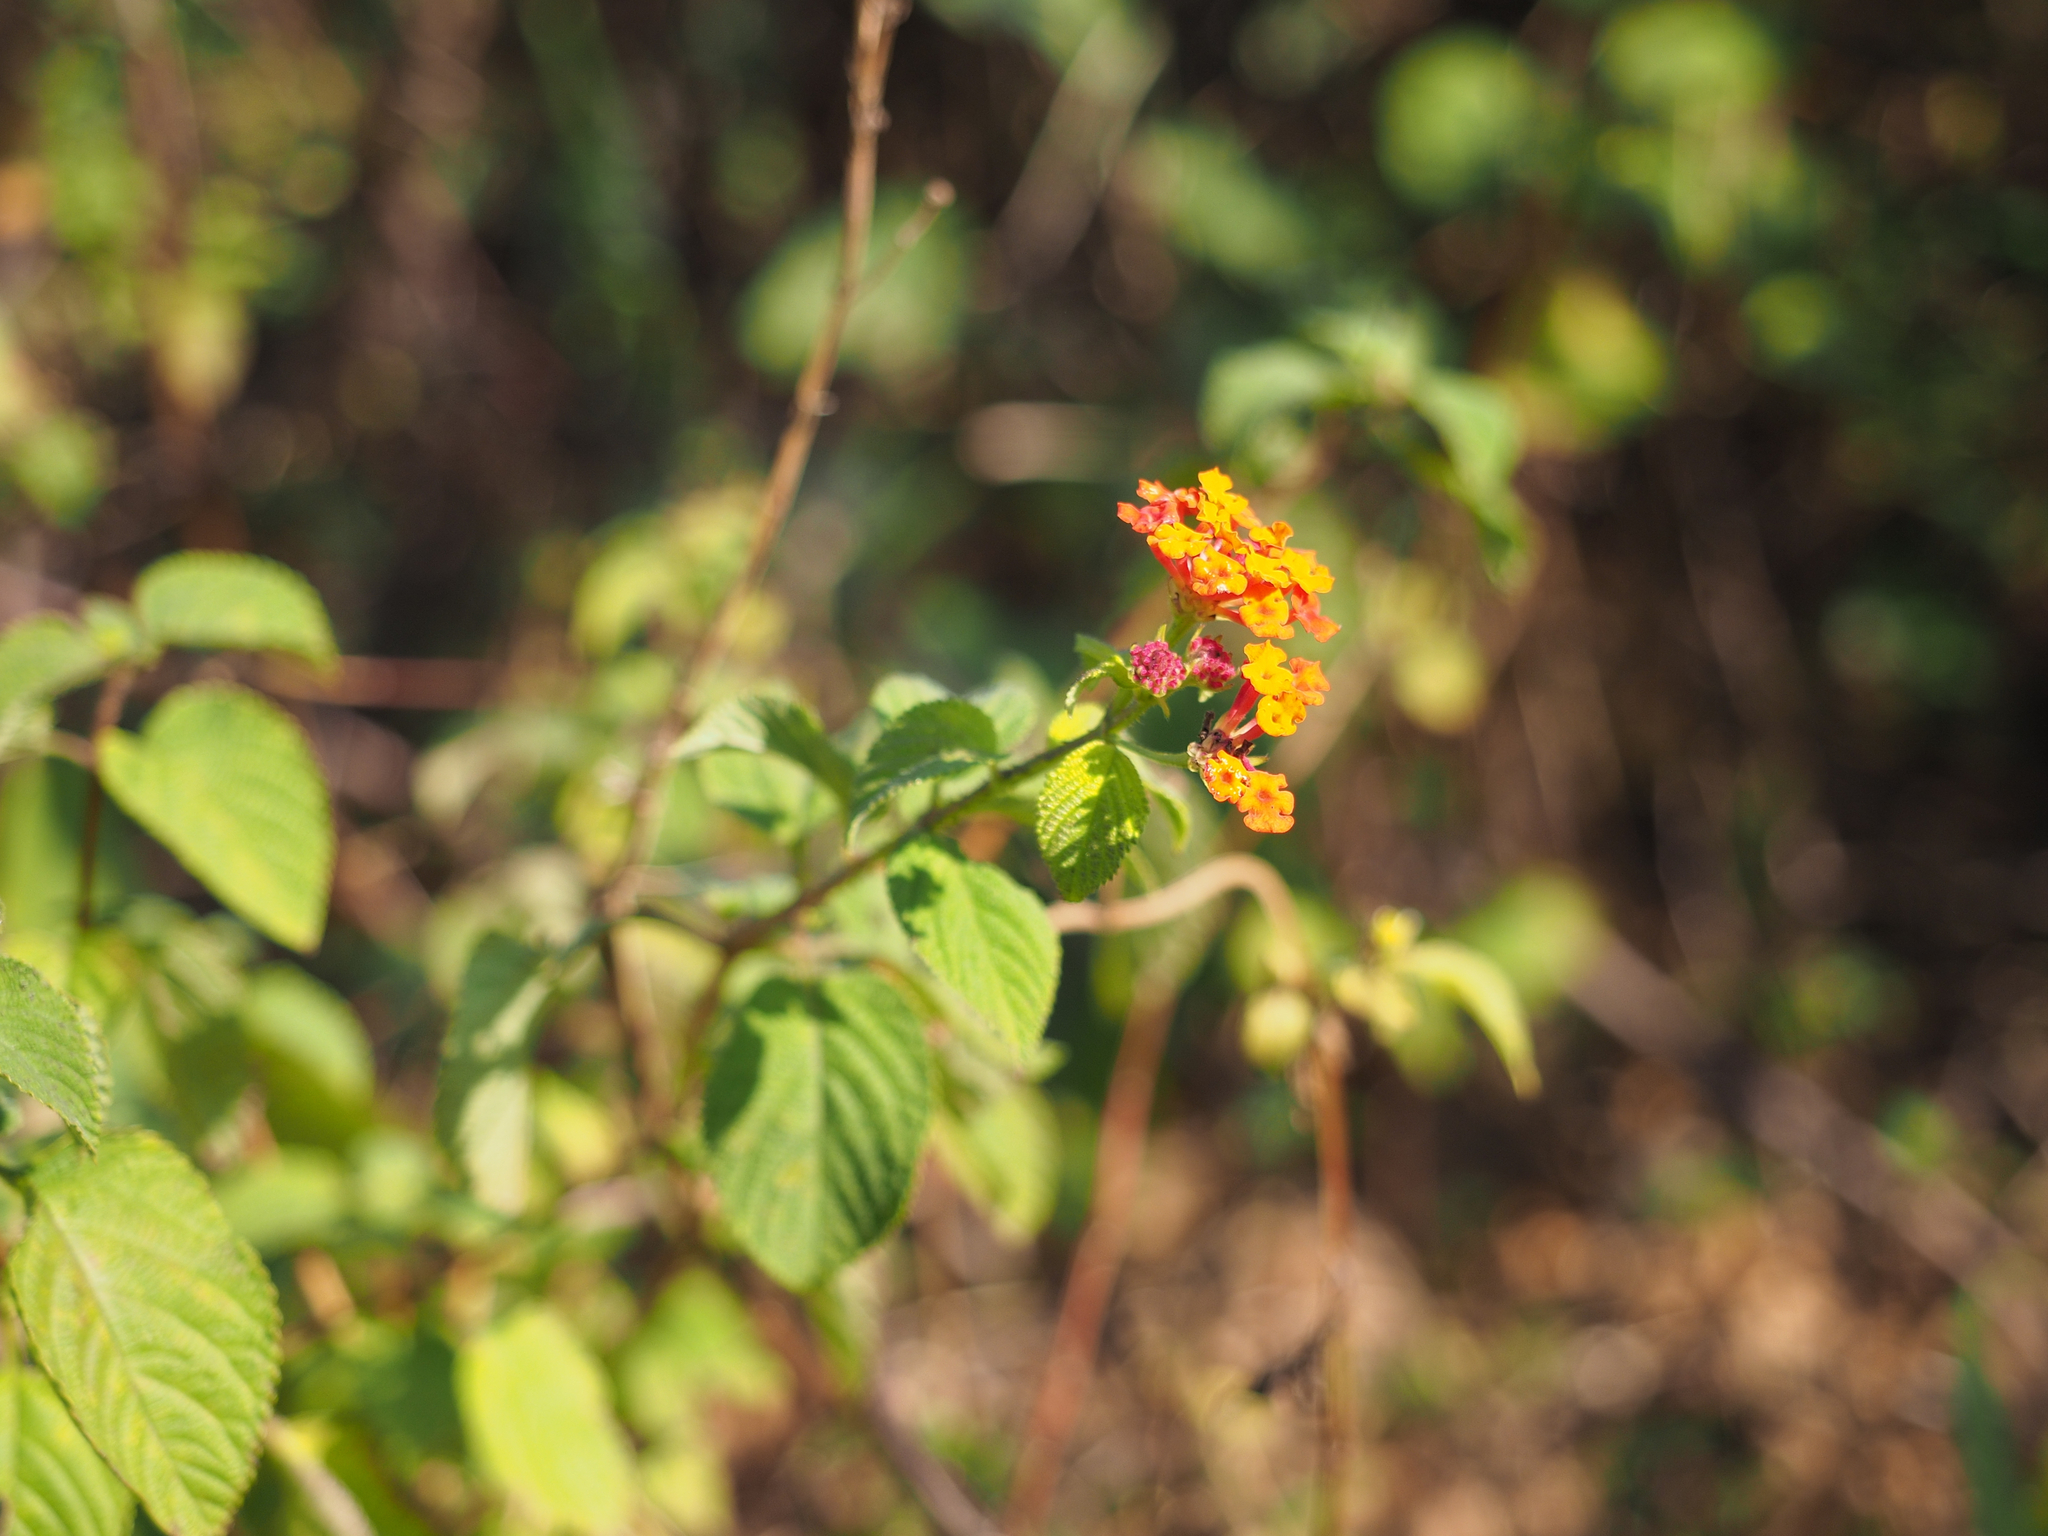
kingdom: Plantae
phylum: Tracheophyta
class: Magnoliopsida
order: Lamiales
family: Verbenaceae
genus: Lantana
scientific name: Lantana camara
